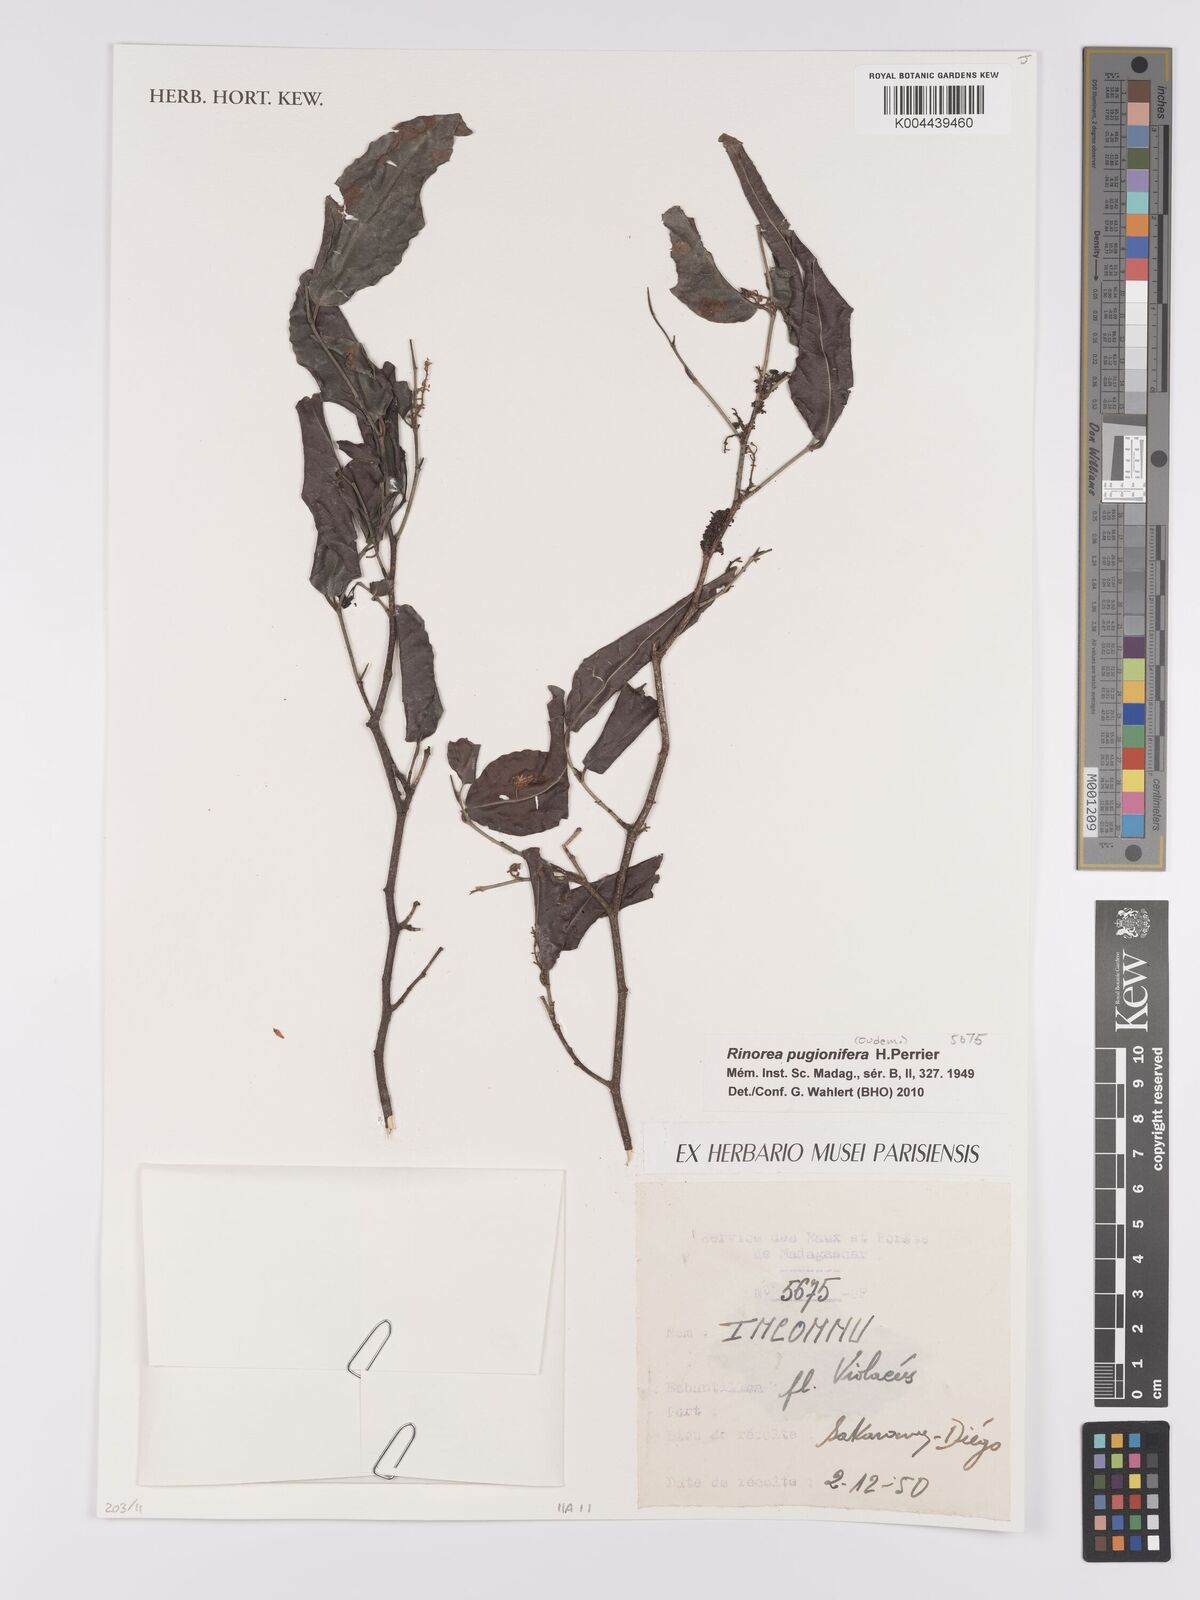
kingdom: Plantae
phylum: Tracheophyta
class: Magnoliopsida
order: Malpighiales
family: Violaceae
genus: Rinorea
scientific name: Rinorea pugionifera
